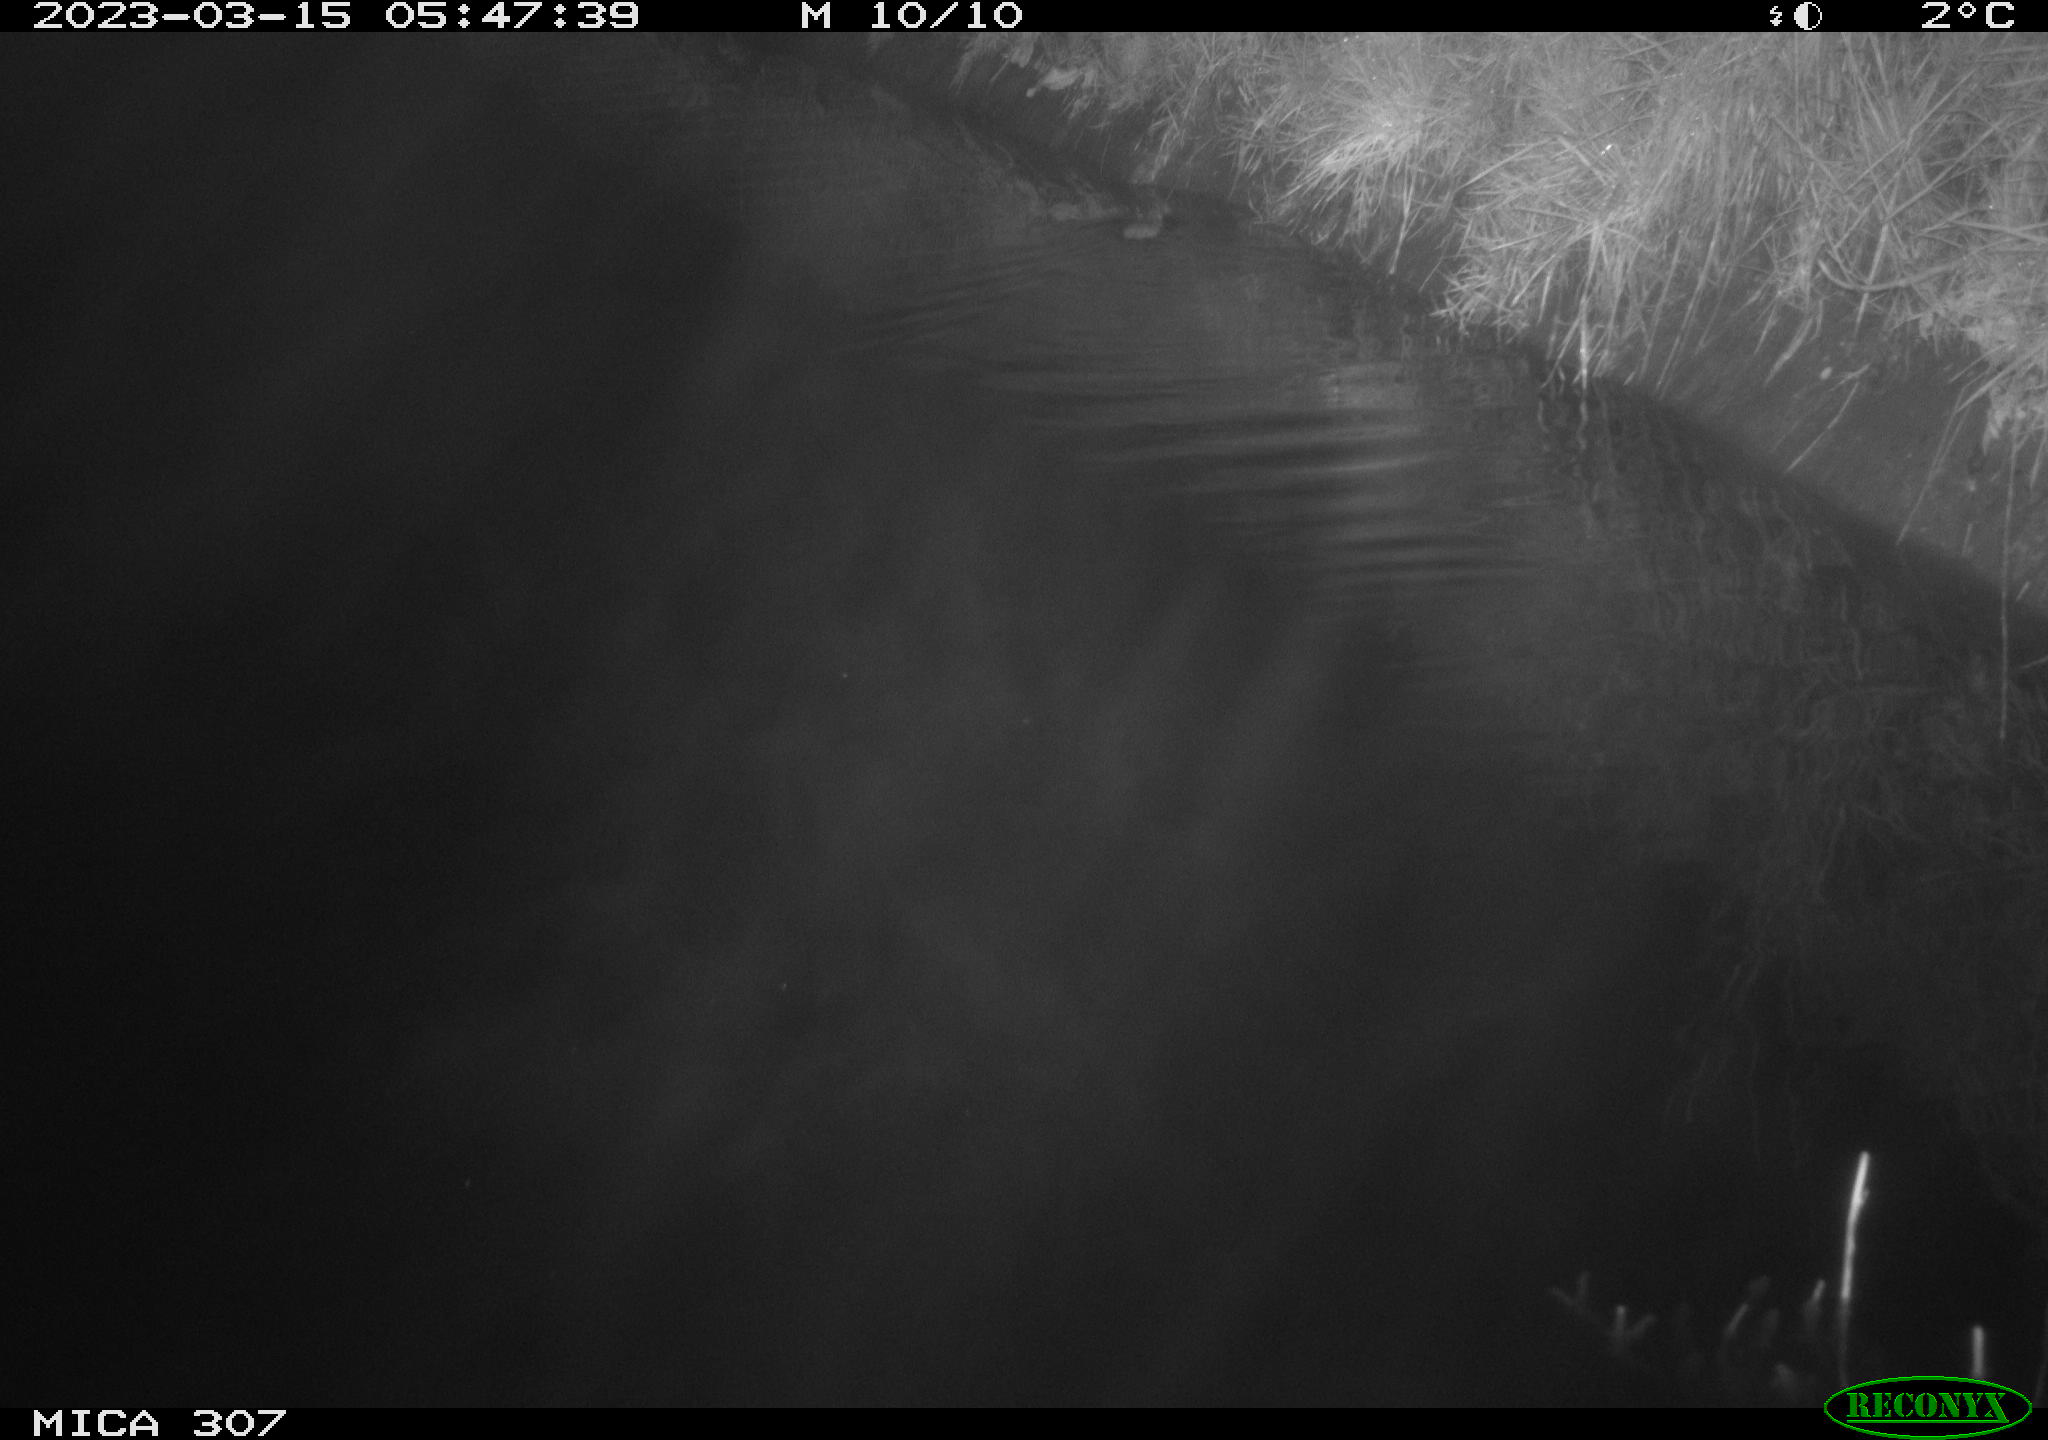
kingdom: Animalia
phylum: Chordata
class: Mammalia
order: Rodentia
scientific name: Rodentia
